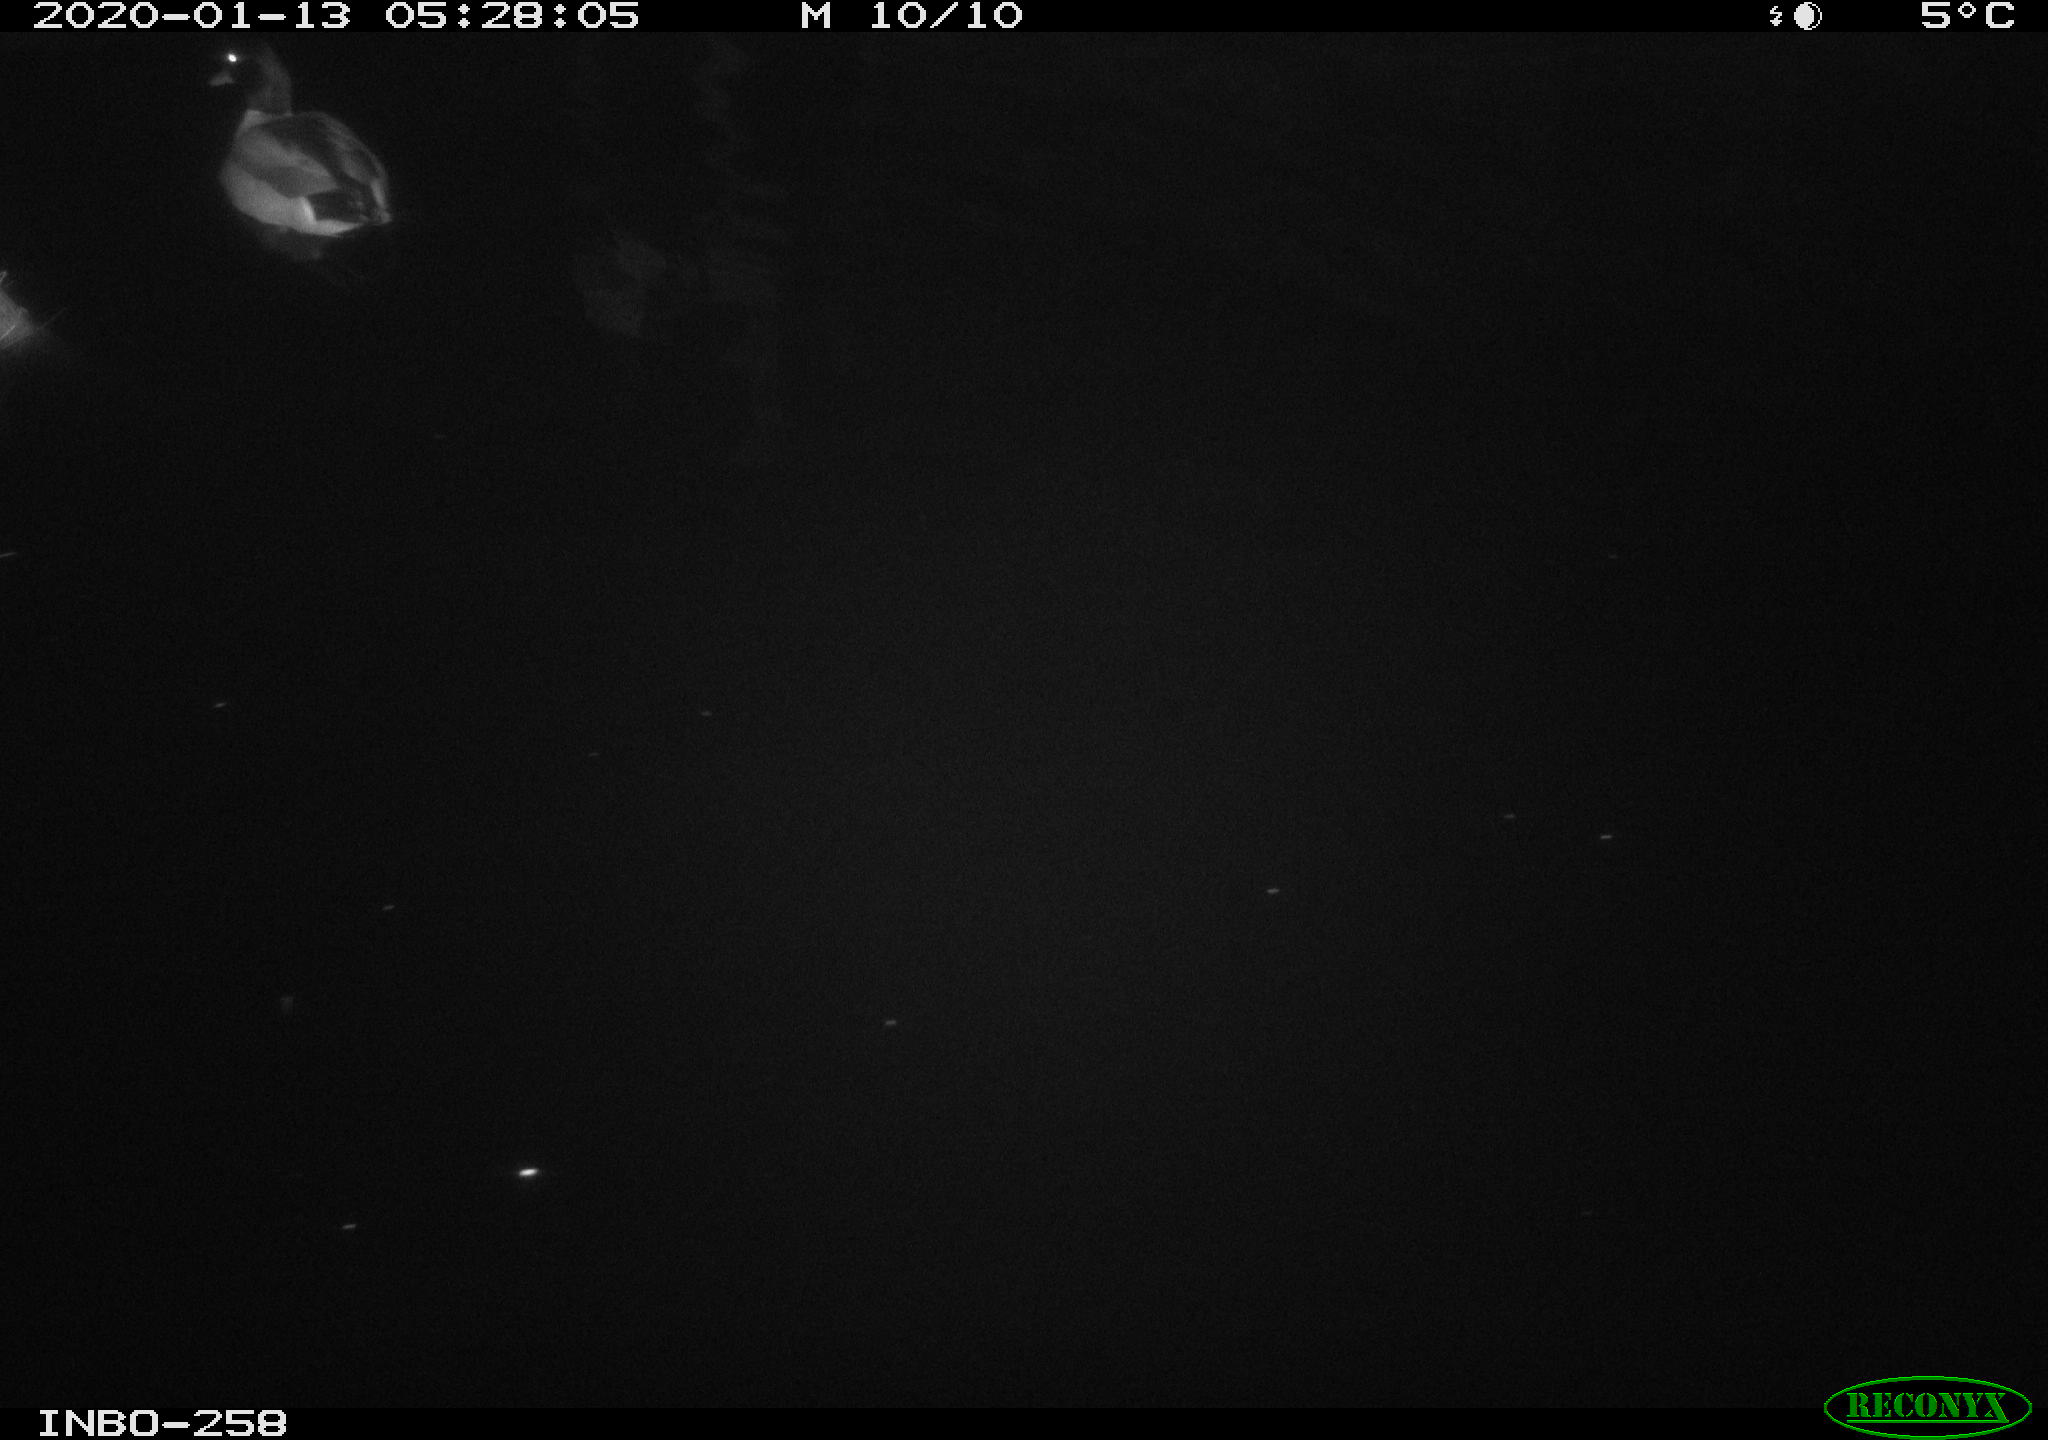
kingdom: Animalia
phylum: Chordata
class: Aves
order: Anseriformes
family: Anatidae
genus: Anas
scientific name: Anas platyrhynchos
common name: Mallard
